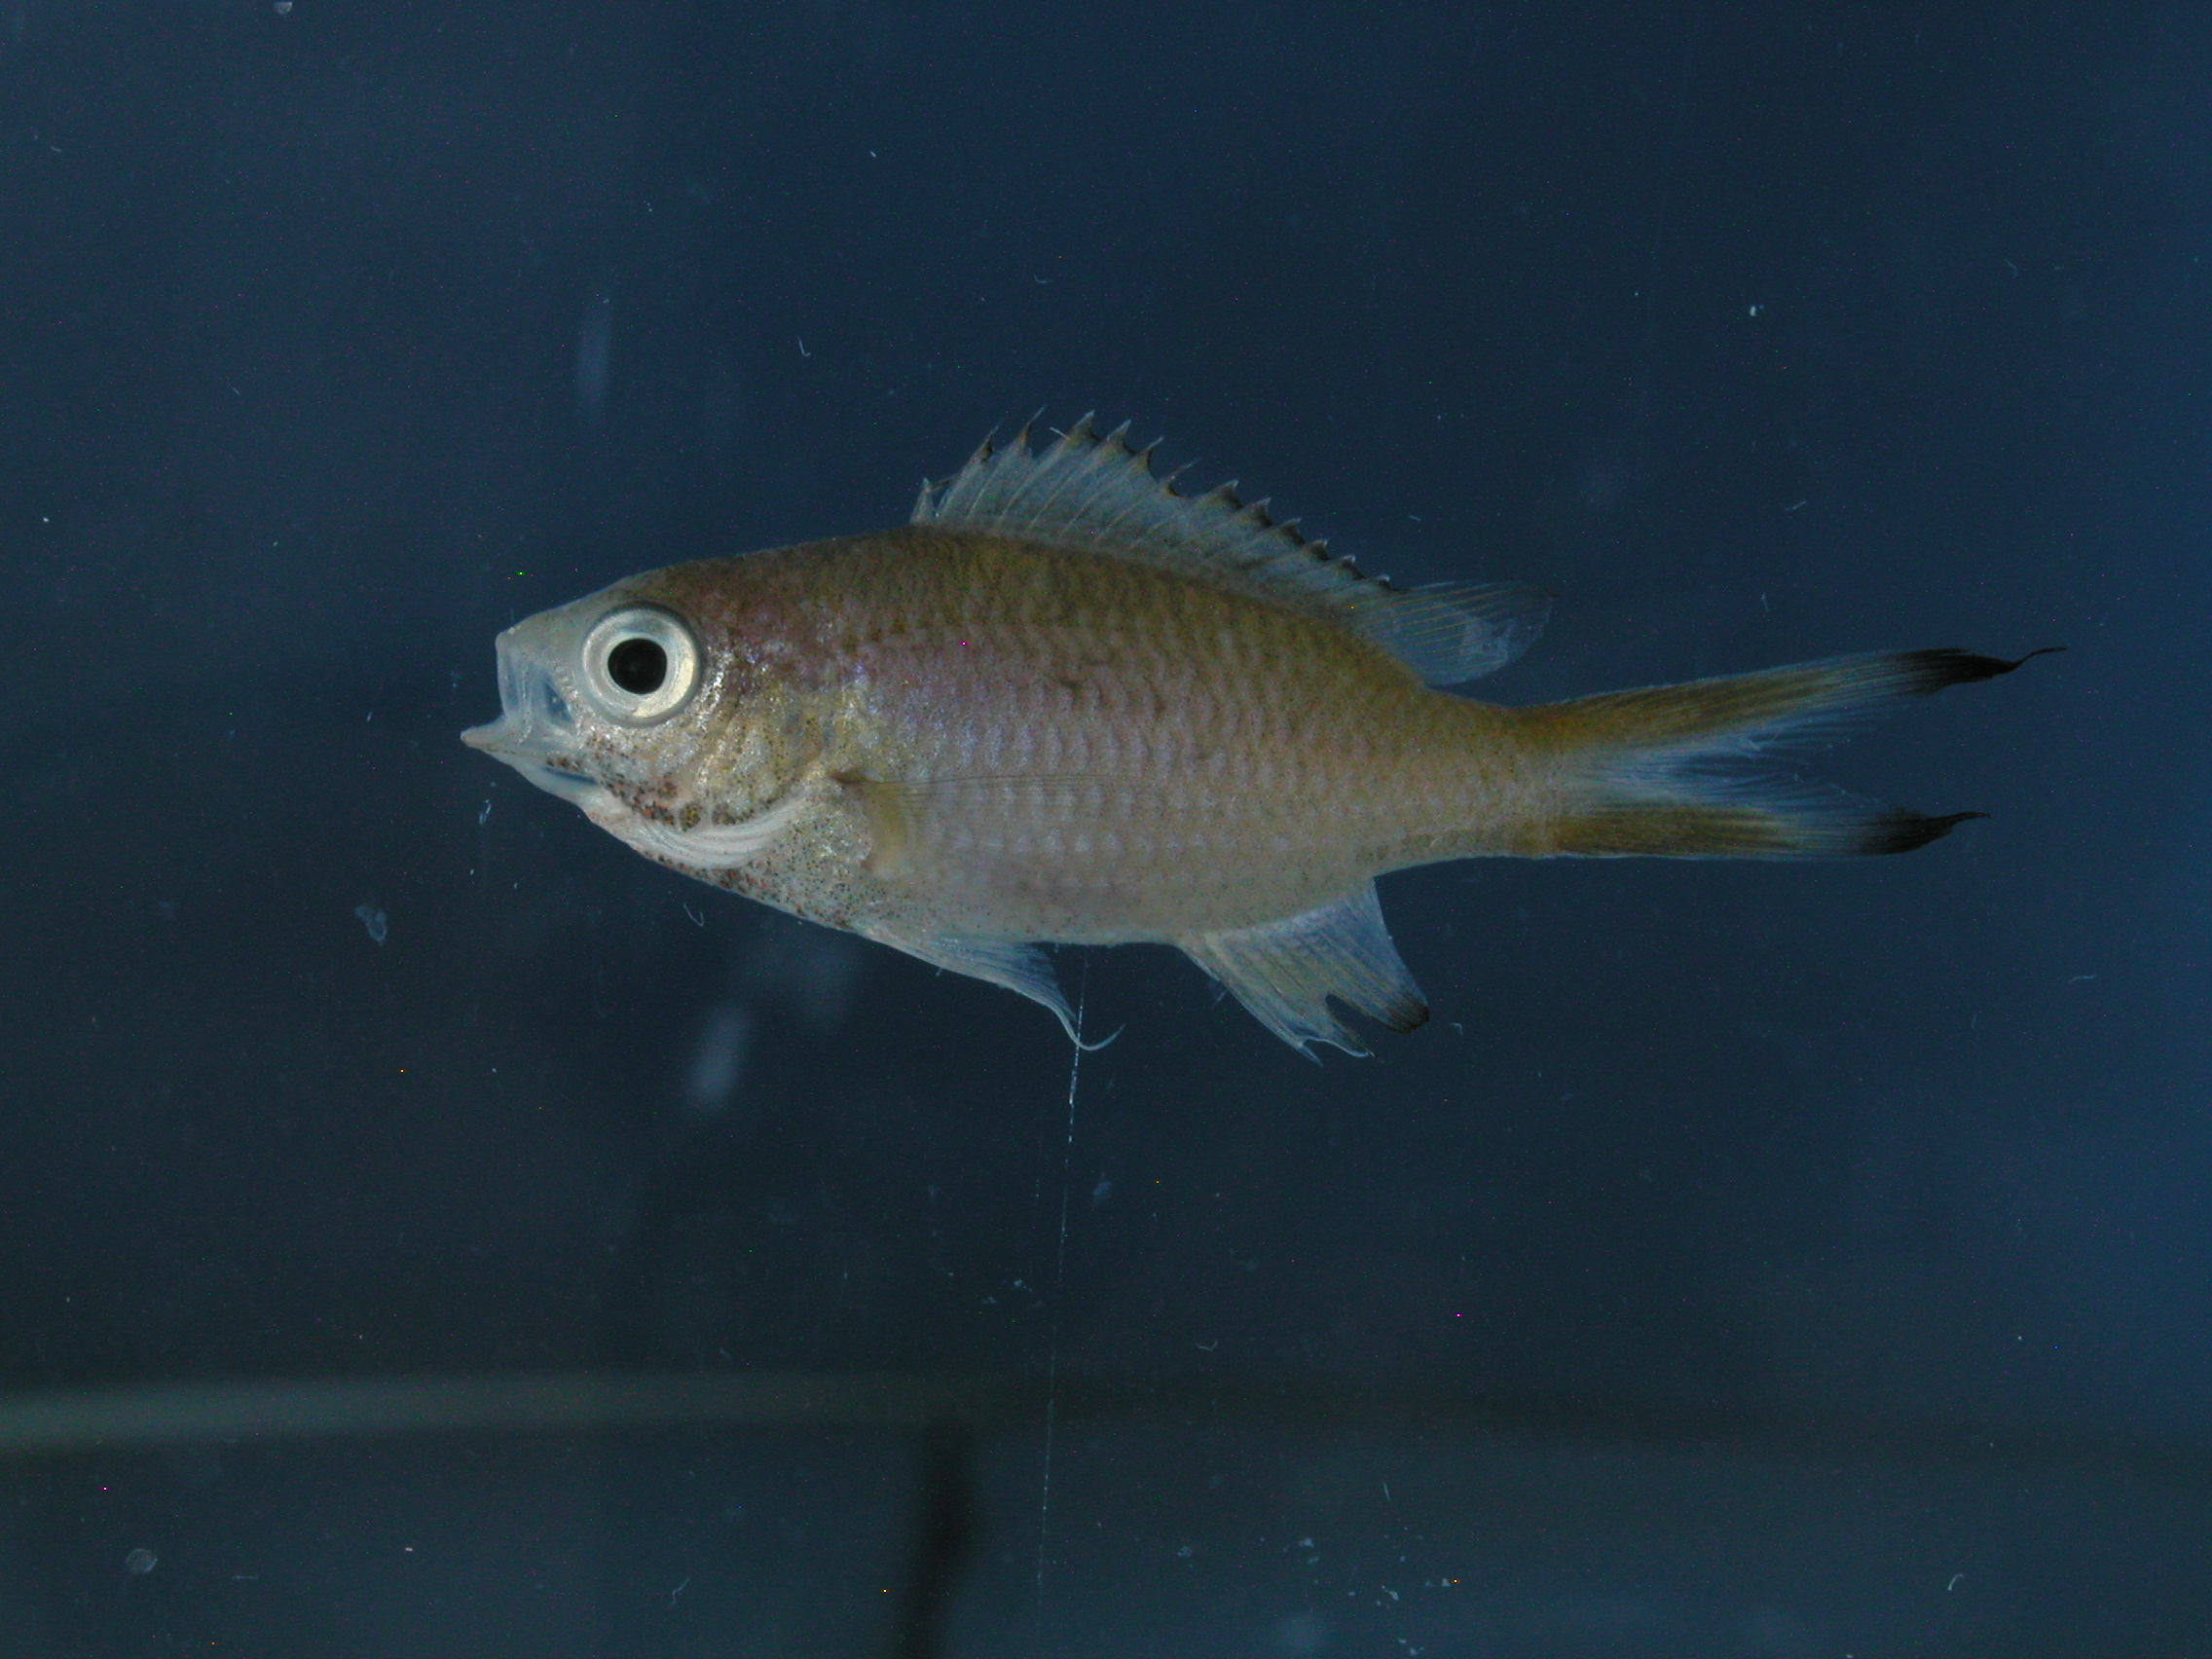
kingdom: Animalia
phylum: Chordata
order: Perciformes
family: Pomacentridae
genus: Chromis
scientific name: Chromis weberi
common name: Weber's chromis
